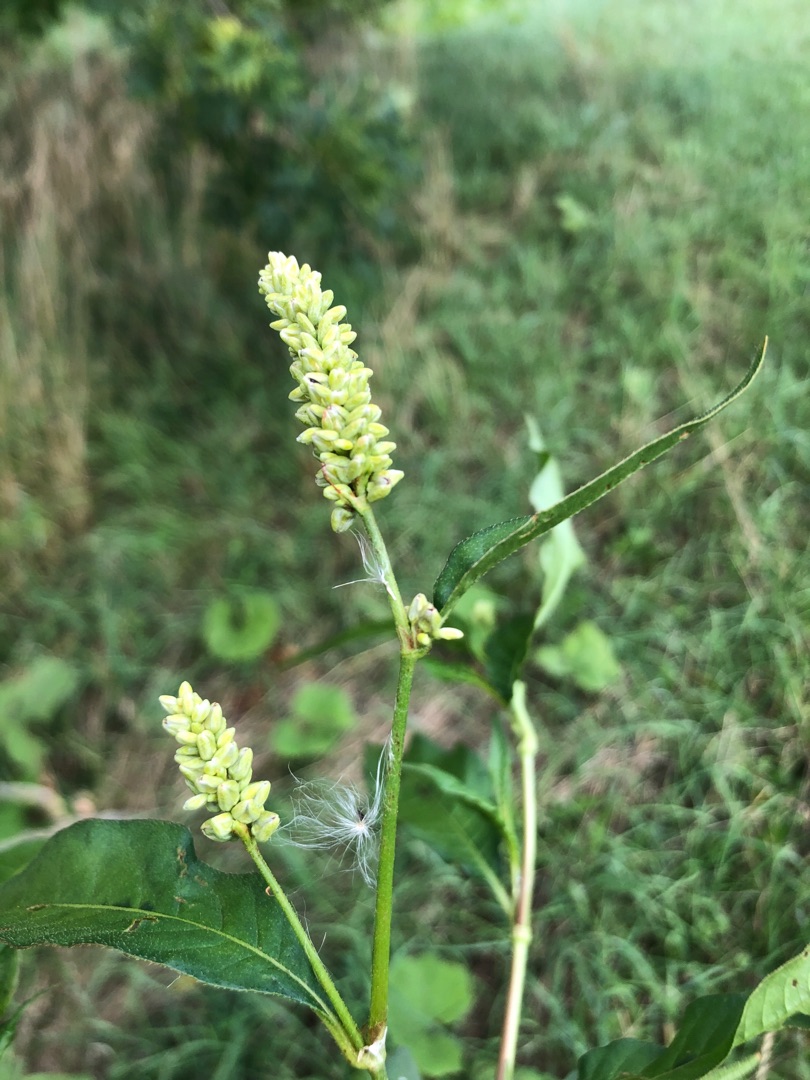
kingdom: Plantae
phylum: Tracheophyta
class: Magnoliopsida
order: Caryophyllales
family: Polygonaceae
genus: Persicaria
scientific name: Persicaria lapathifolia
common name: Bleg pileurt
